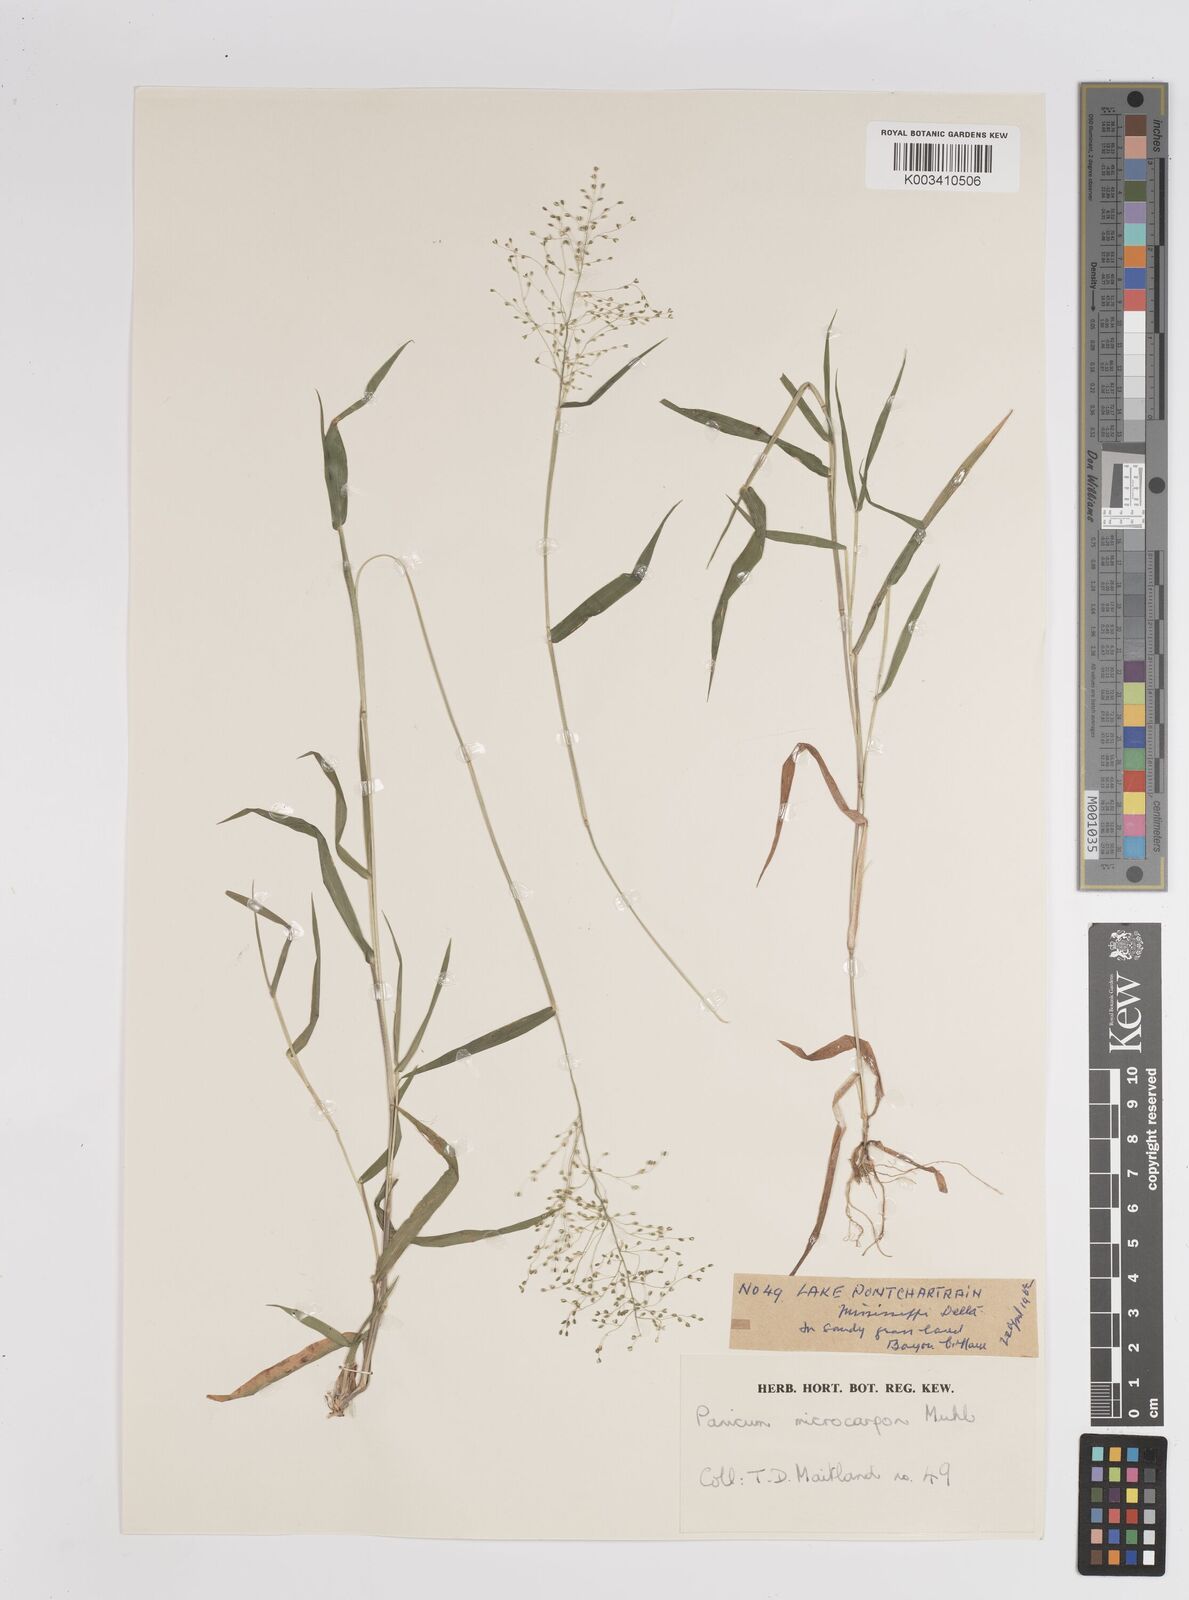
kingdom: Plantae
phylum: Tracheophyta
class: Liliopsida
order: Poales
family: Poaceae
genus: Dichanthelium
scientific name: Dichanthelium polyanthes
